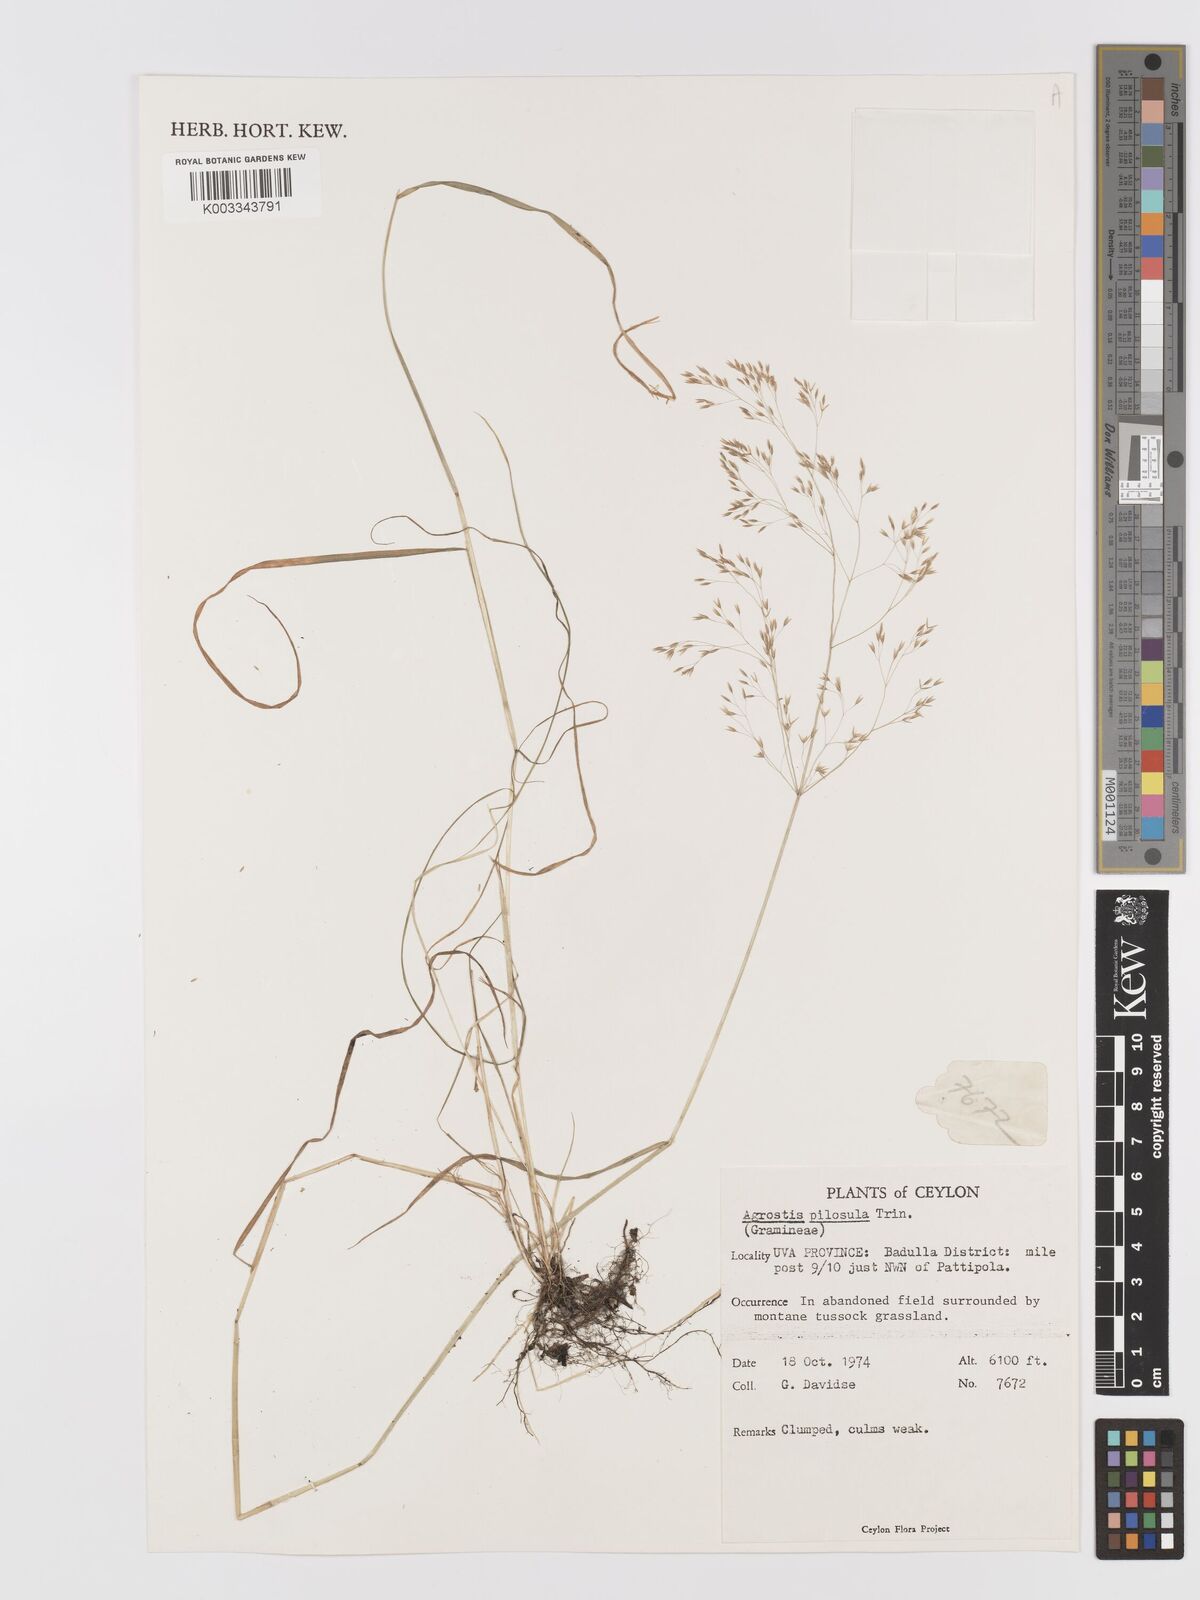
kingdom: Plantae
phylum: Tracheophyta
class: Liliopsida
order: Poales
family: Poaceae
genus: Agrostis
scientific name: Agrostis pilosula
